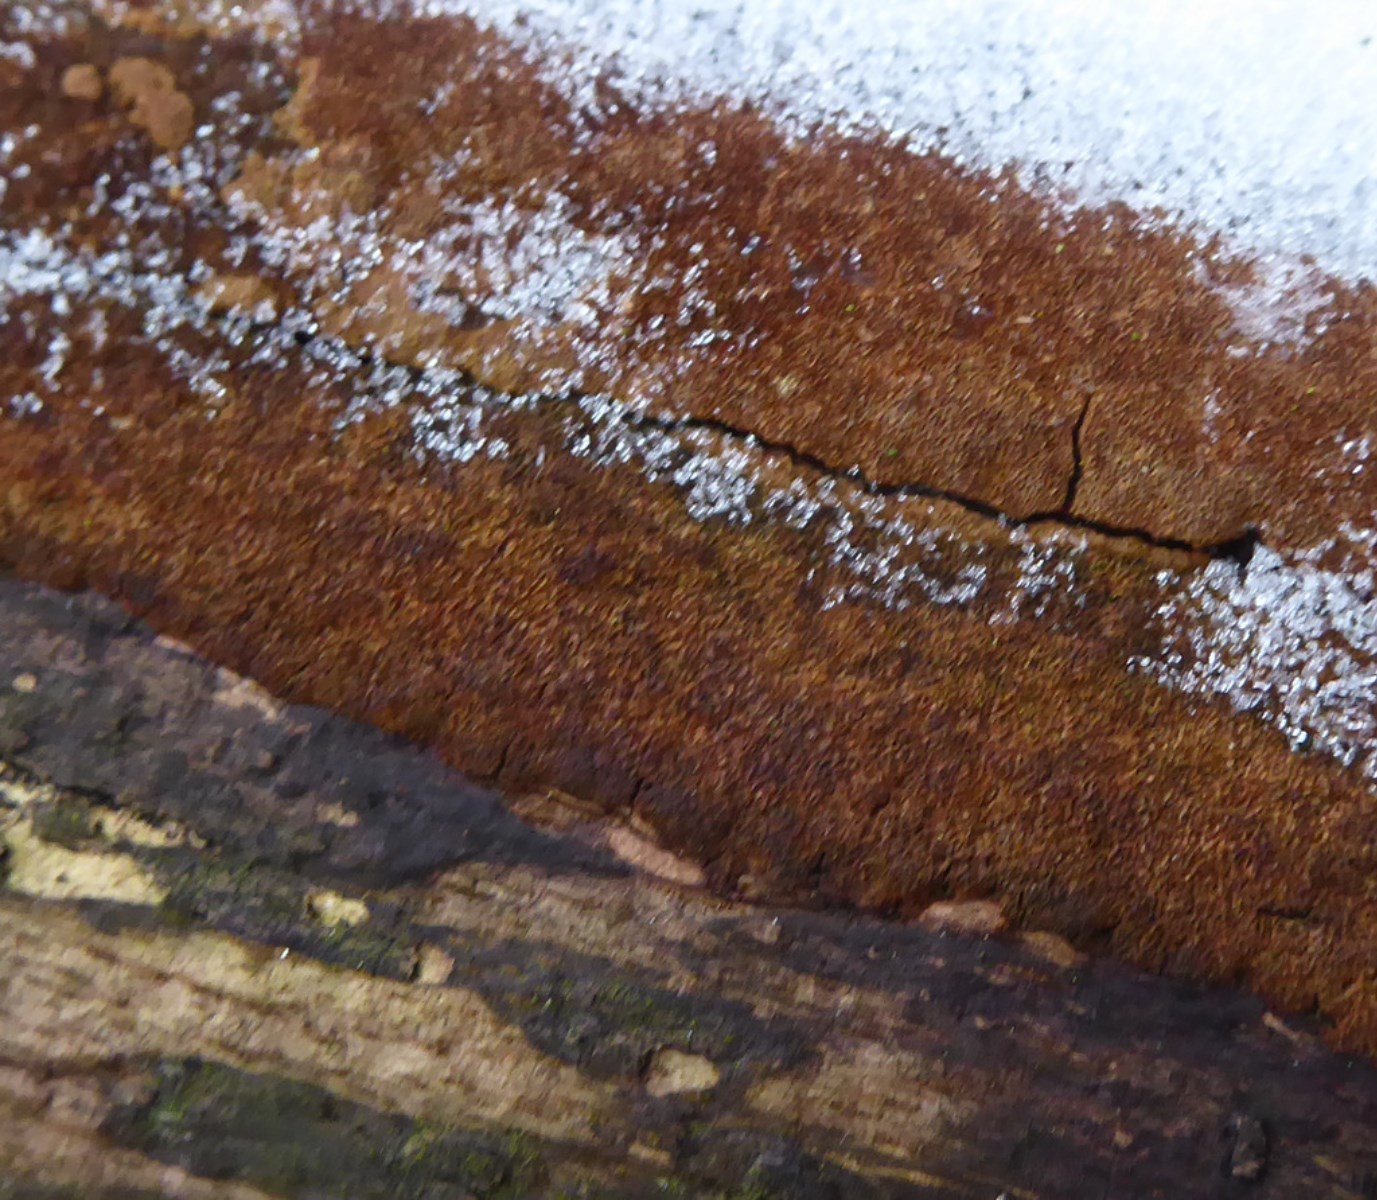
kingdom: Fungi
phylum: Basidiomycota
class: Agaricomycetes
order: Hymenochaetales
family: Hymenochaetaceae
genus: Mensularia
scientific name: Mensularia nodulosa
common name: bøge-spejlporesvamp
